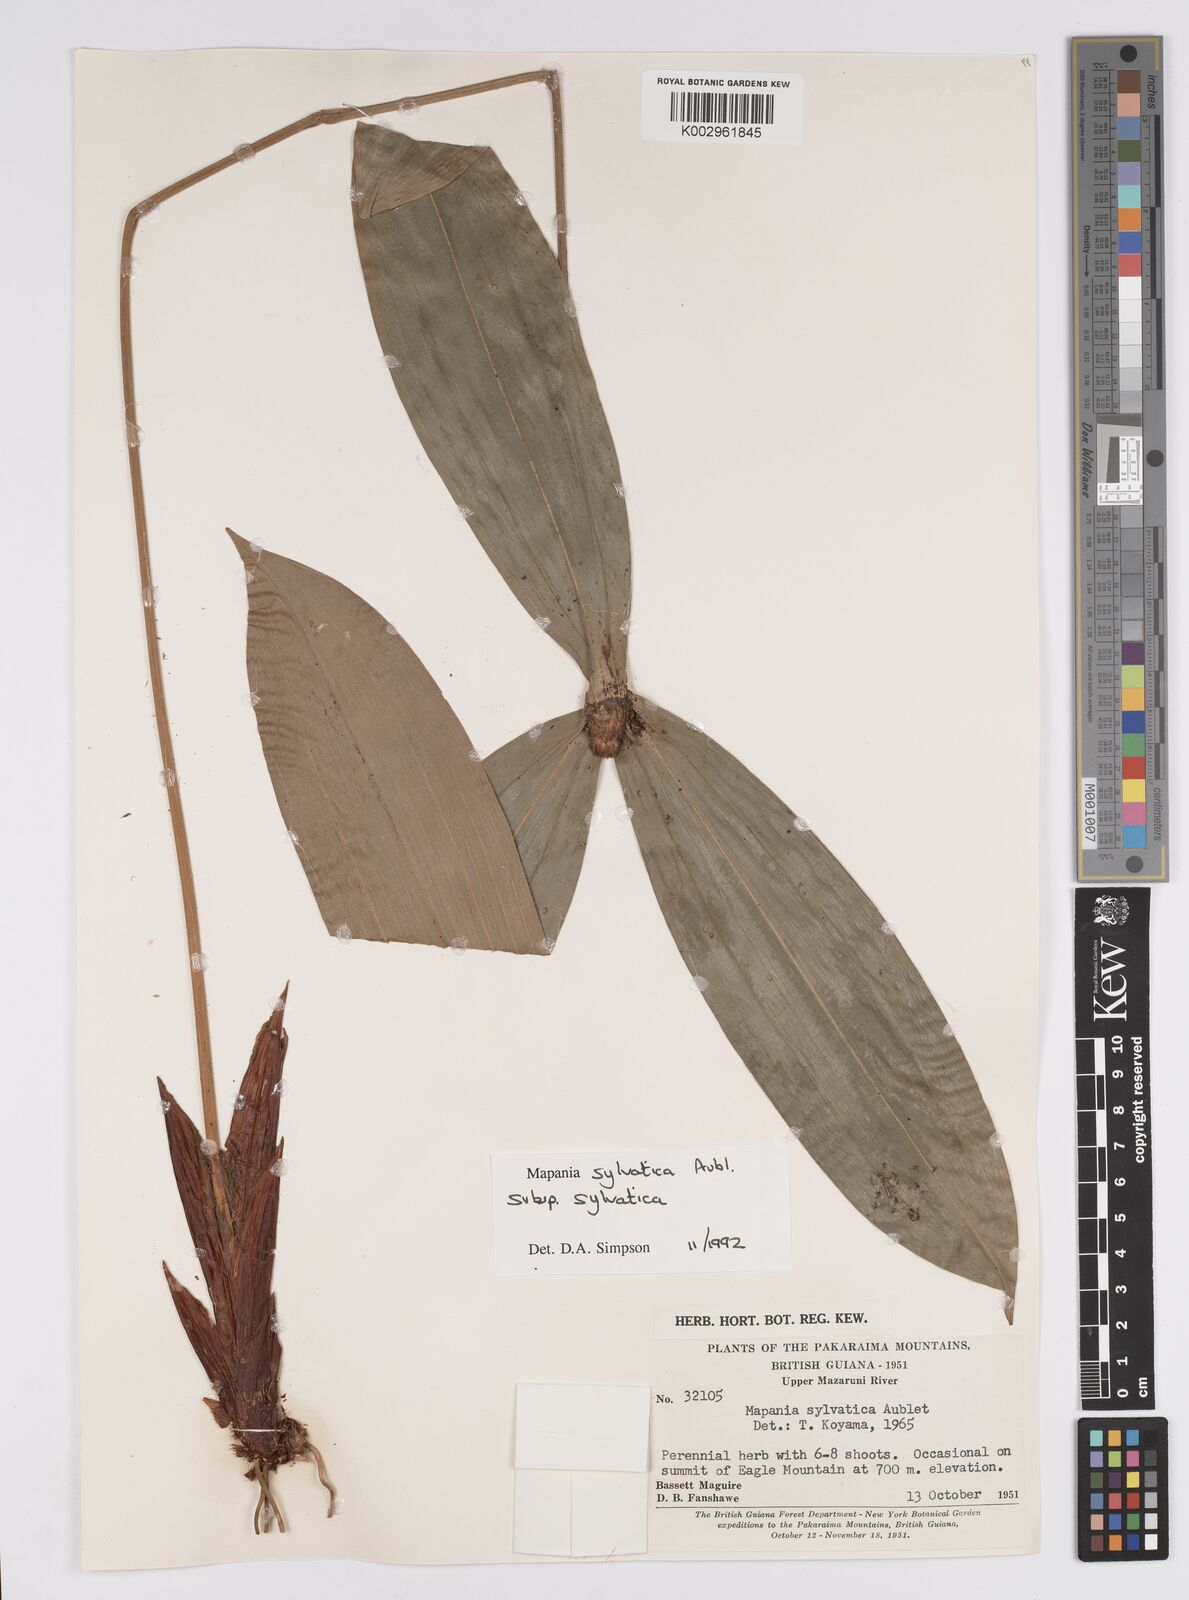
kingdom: Plantae
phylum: Tracheophyta
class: Liliopsida
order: Poales
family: Cyperaceae
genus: Mapania
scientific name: Mapania sylvatica
